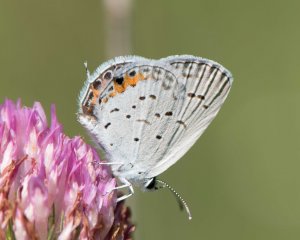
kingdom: Animalia
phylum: Arthropoda
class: Insecta
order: Lepidoptera
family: Lycaenidae
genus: Elkalyce
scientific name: Elkalyce comyntas
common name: Eastern Tailed-Blue
